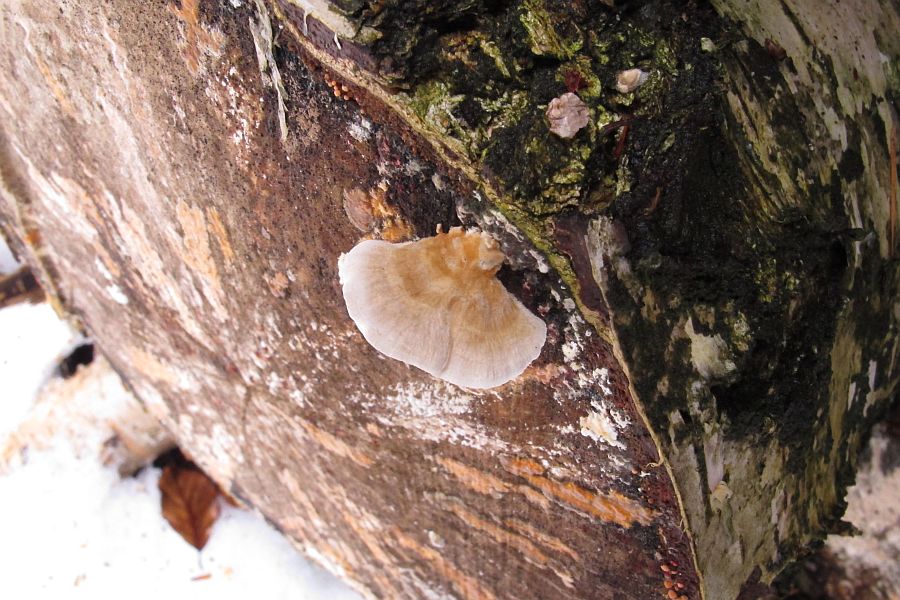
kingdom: Fungi
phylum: Basidiomycota
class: Agaricomycetes
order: Polyporales
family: Polyporaceae
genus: Trametes
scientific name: Trametes ochracea
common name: bæltet læderporesvamp
